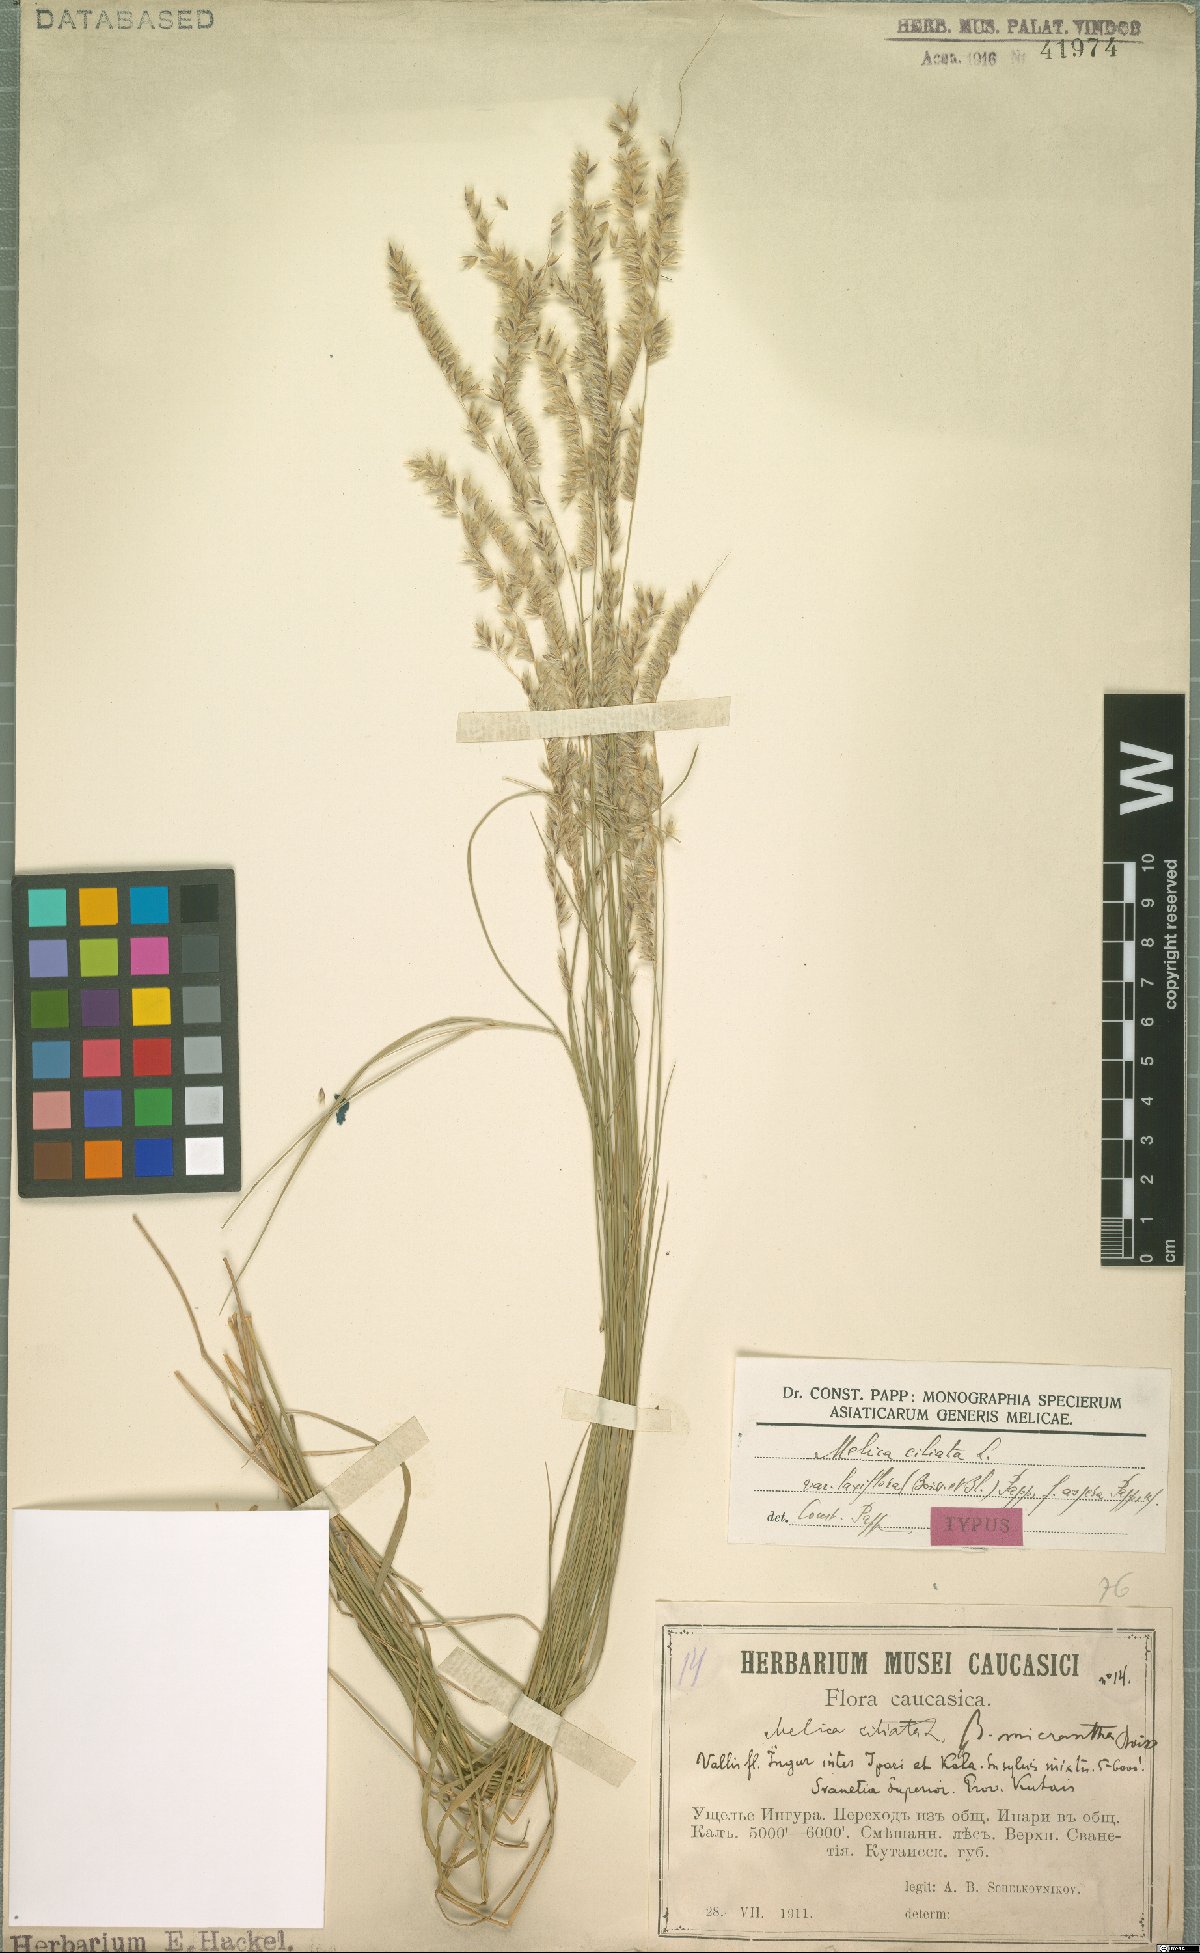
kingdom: Plantae
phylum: Tracheophyta
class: Liliopsida
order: Poales
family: Poaceae
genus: Melica
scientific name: Melica ciliata
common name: Hairy melicgrass
